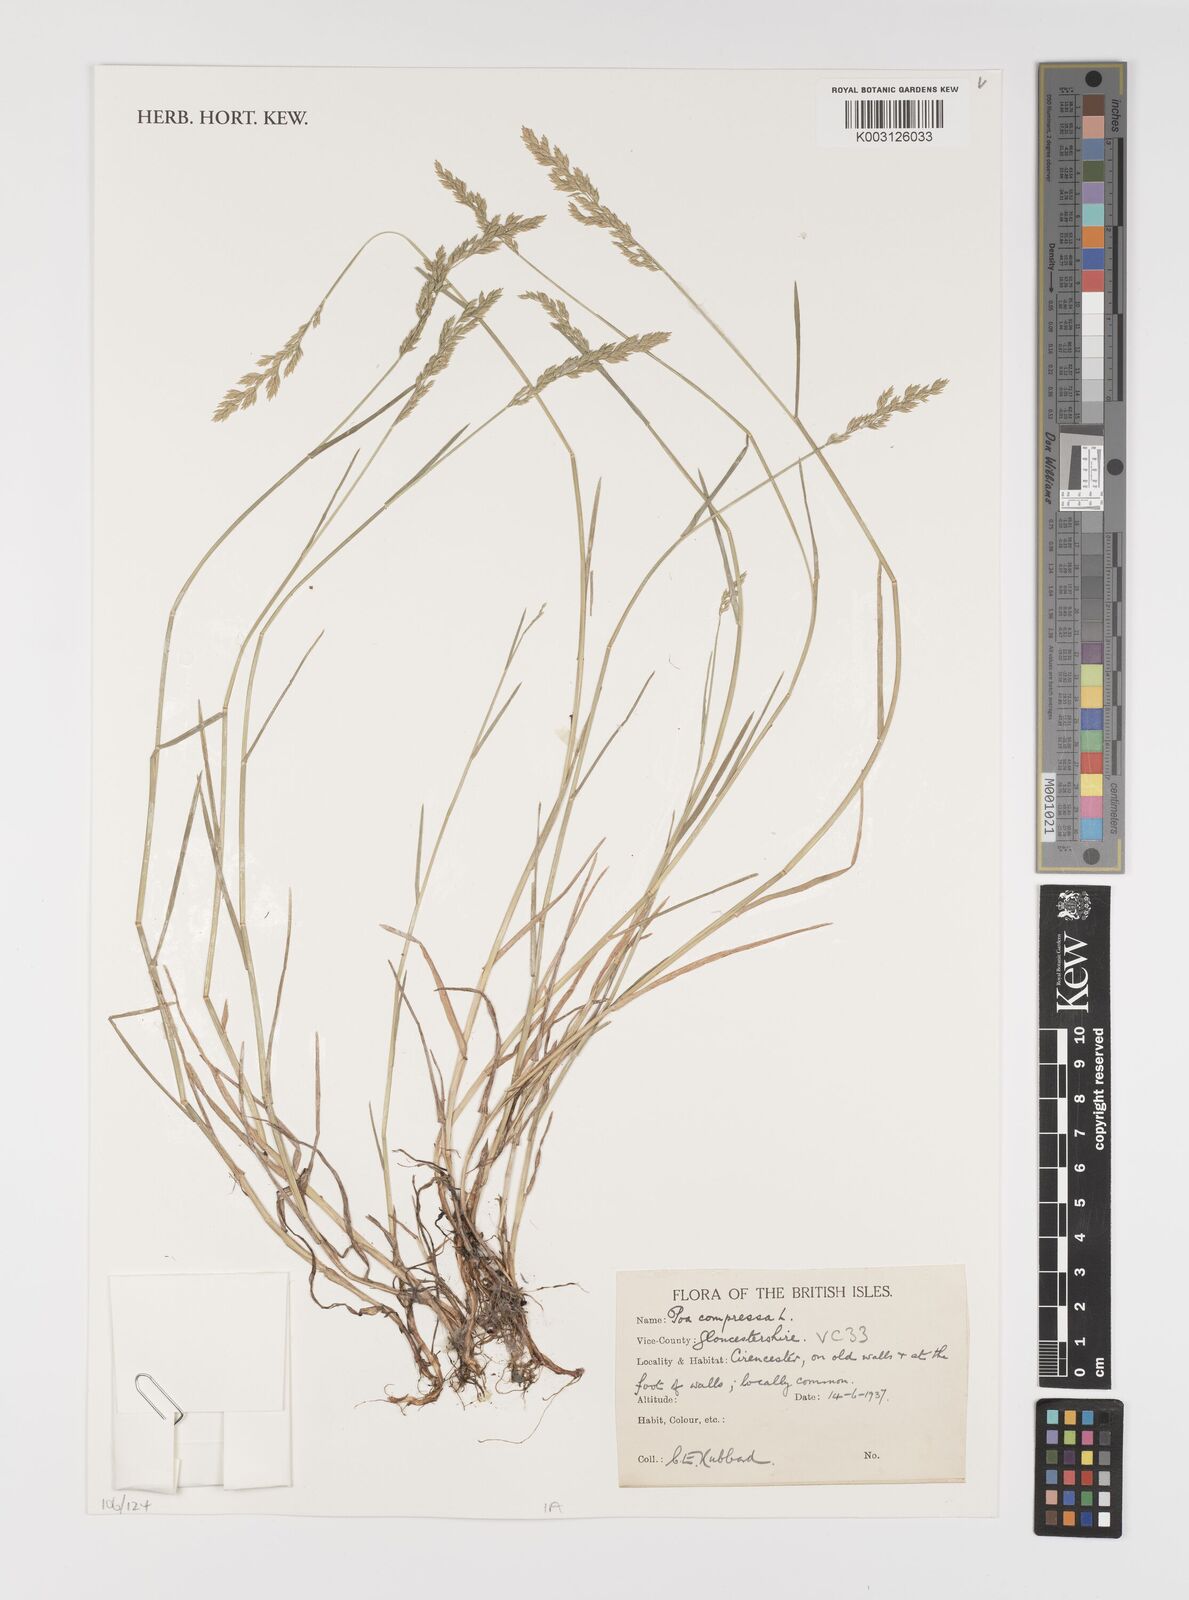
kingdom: Plantae
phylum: Tracheophyta
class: Liliopsida
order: Poales
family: Poaceae
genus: Poa
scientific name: Poa compressa
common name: Canada bluegrass
